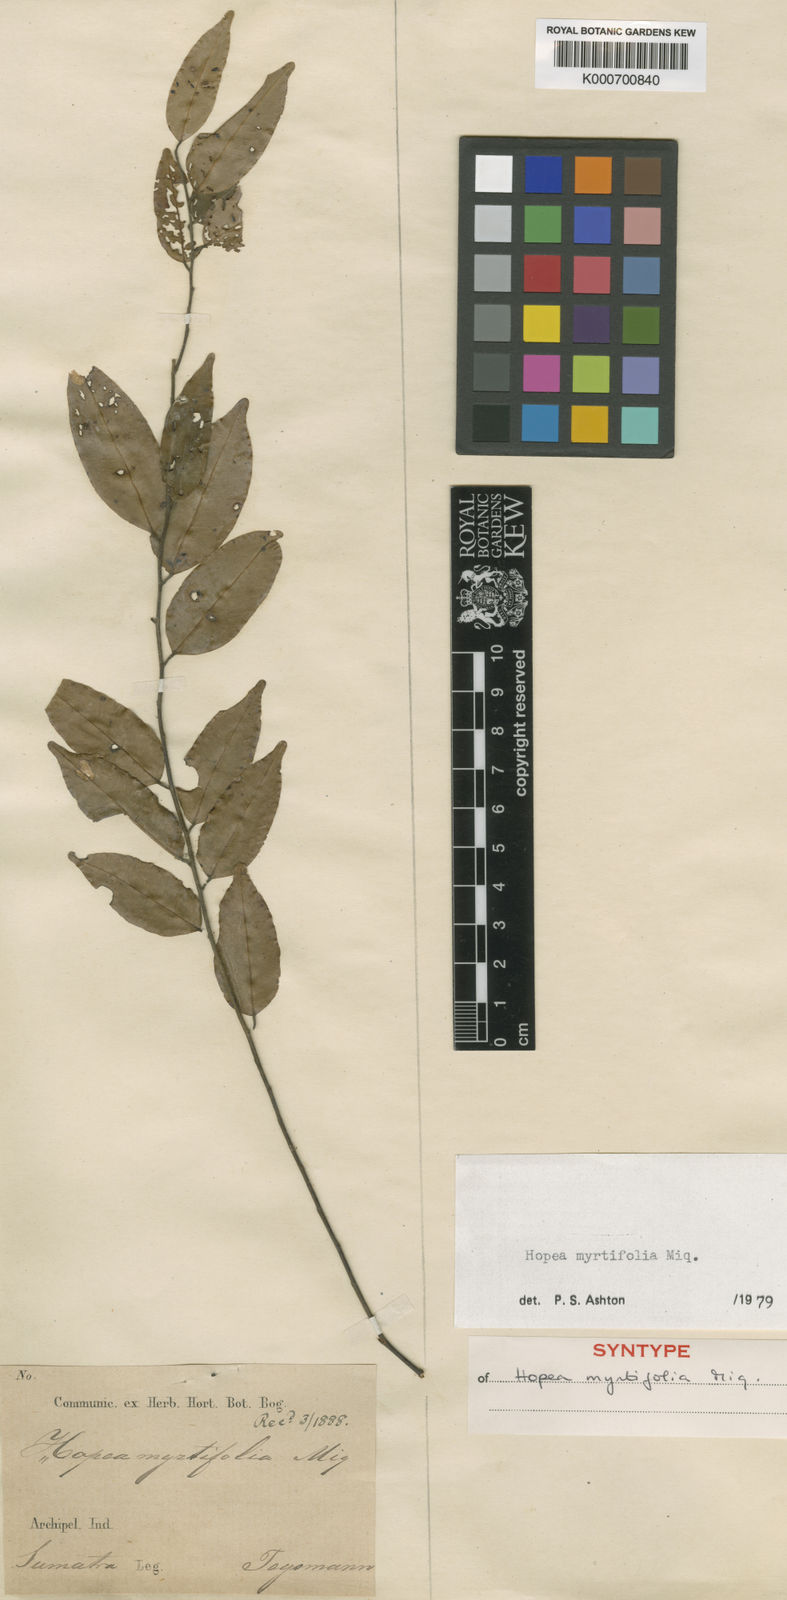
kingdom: Plantae
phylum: Tracheophyta
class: Magnoliopsida
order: Malvales
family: Dipterocarpaceae
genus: Hopea
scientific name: Hopea myrtifolia
